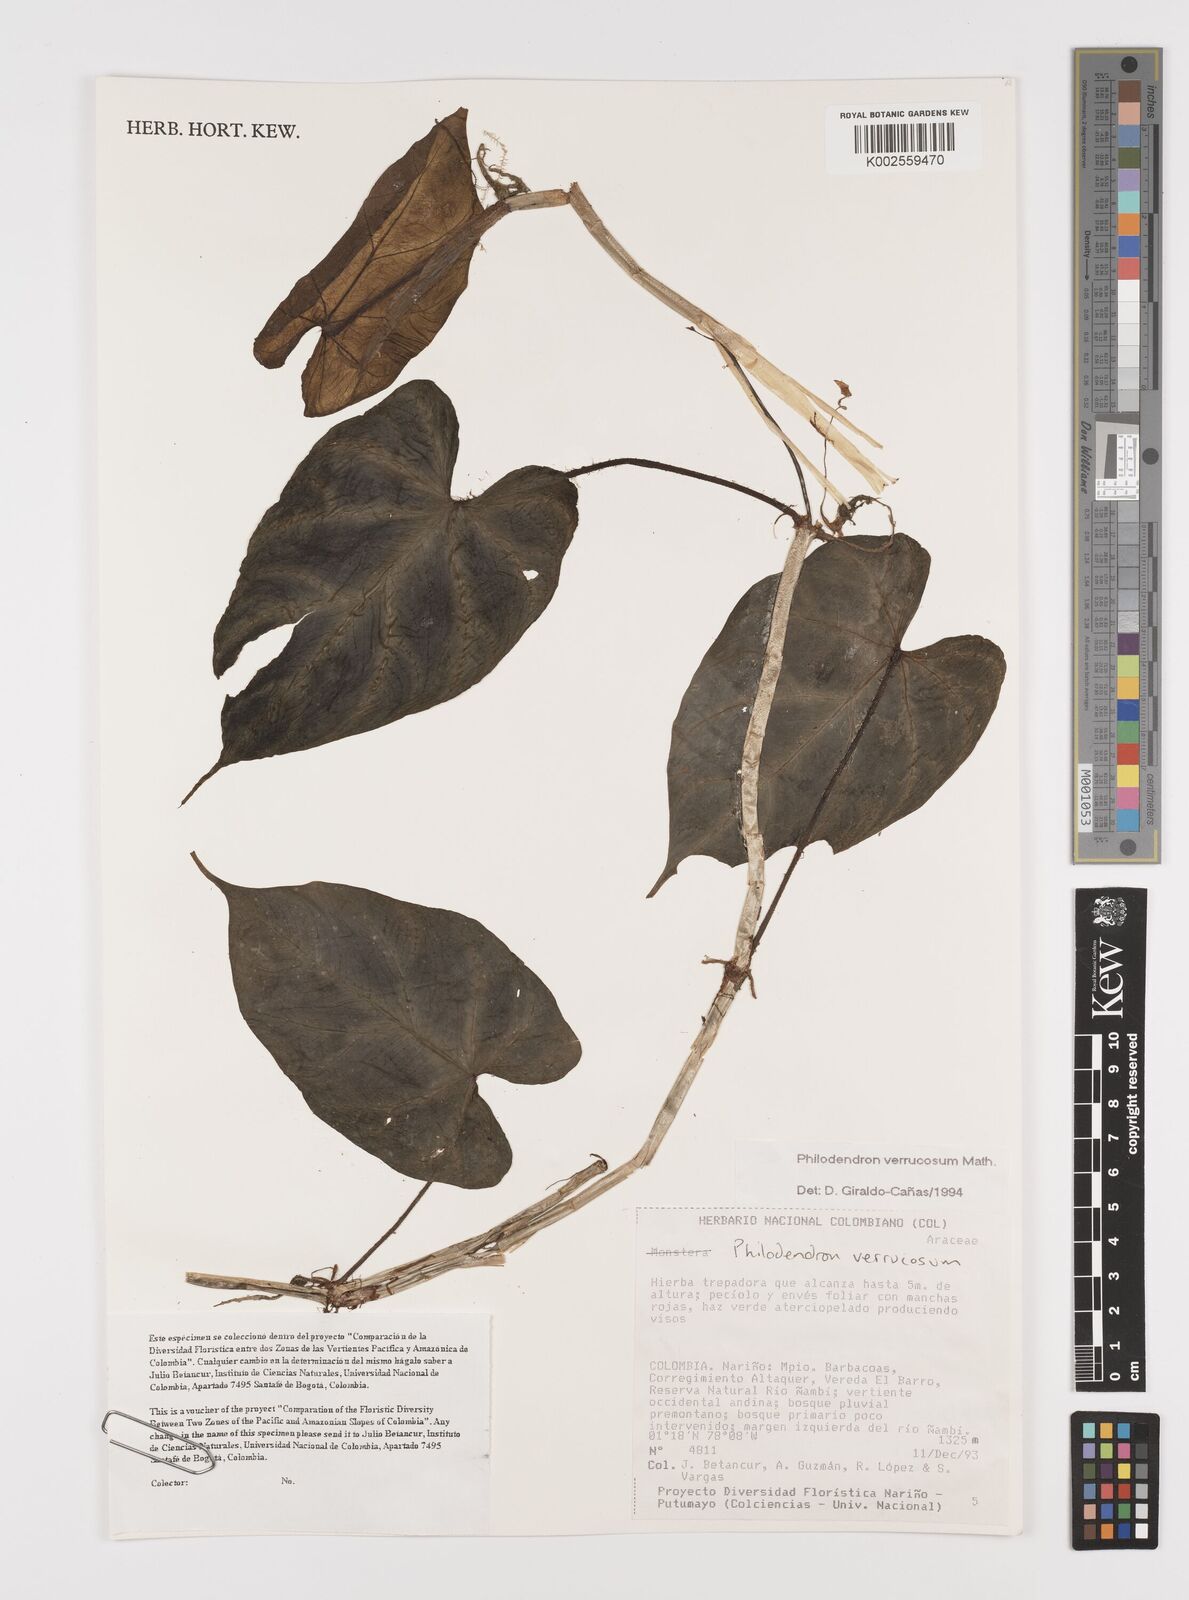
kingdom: Plantae
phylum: Tracheophyta
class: Liliopsida
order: Alismatales
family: Araceae
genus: Philodendron
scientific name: Philodendron verrucosum
